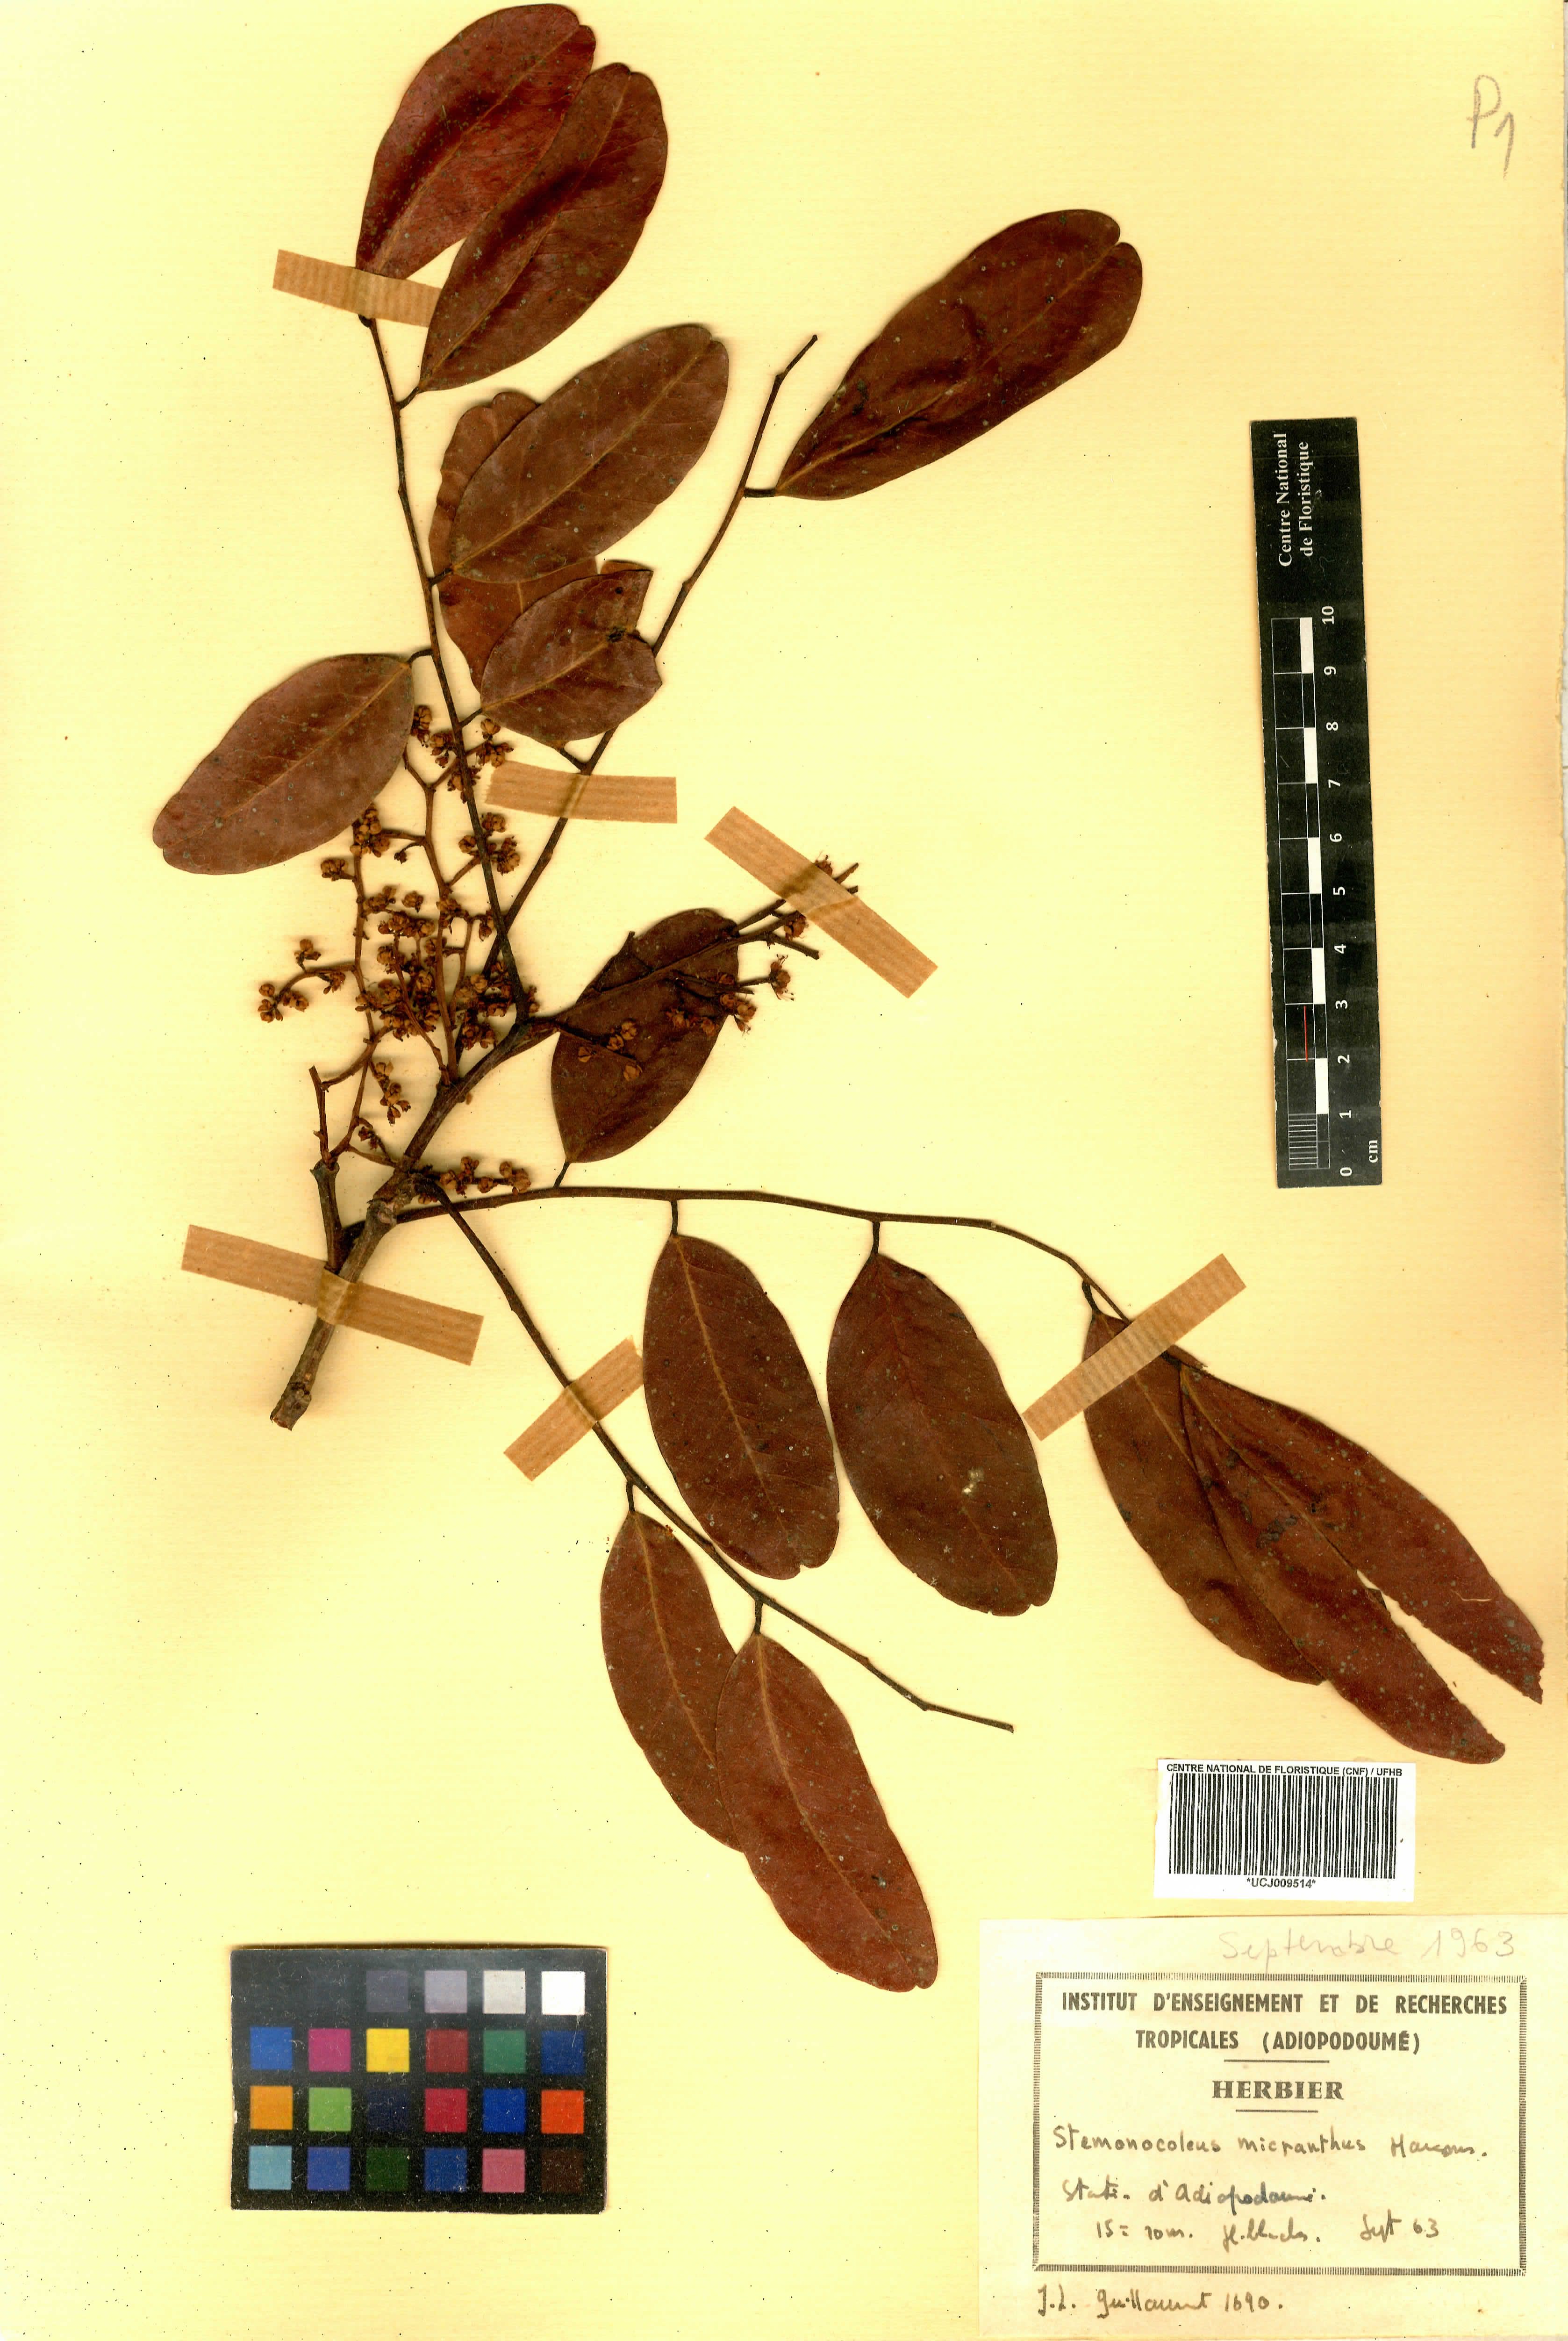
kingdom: Plantae
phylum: Tracheophyta
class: Magnoliopsida
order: Fabales
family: Fabaceae
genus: Stemonocoleus
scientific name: Stemonocoleus micranthus
